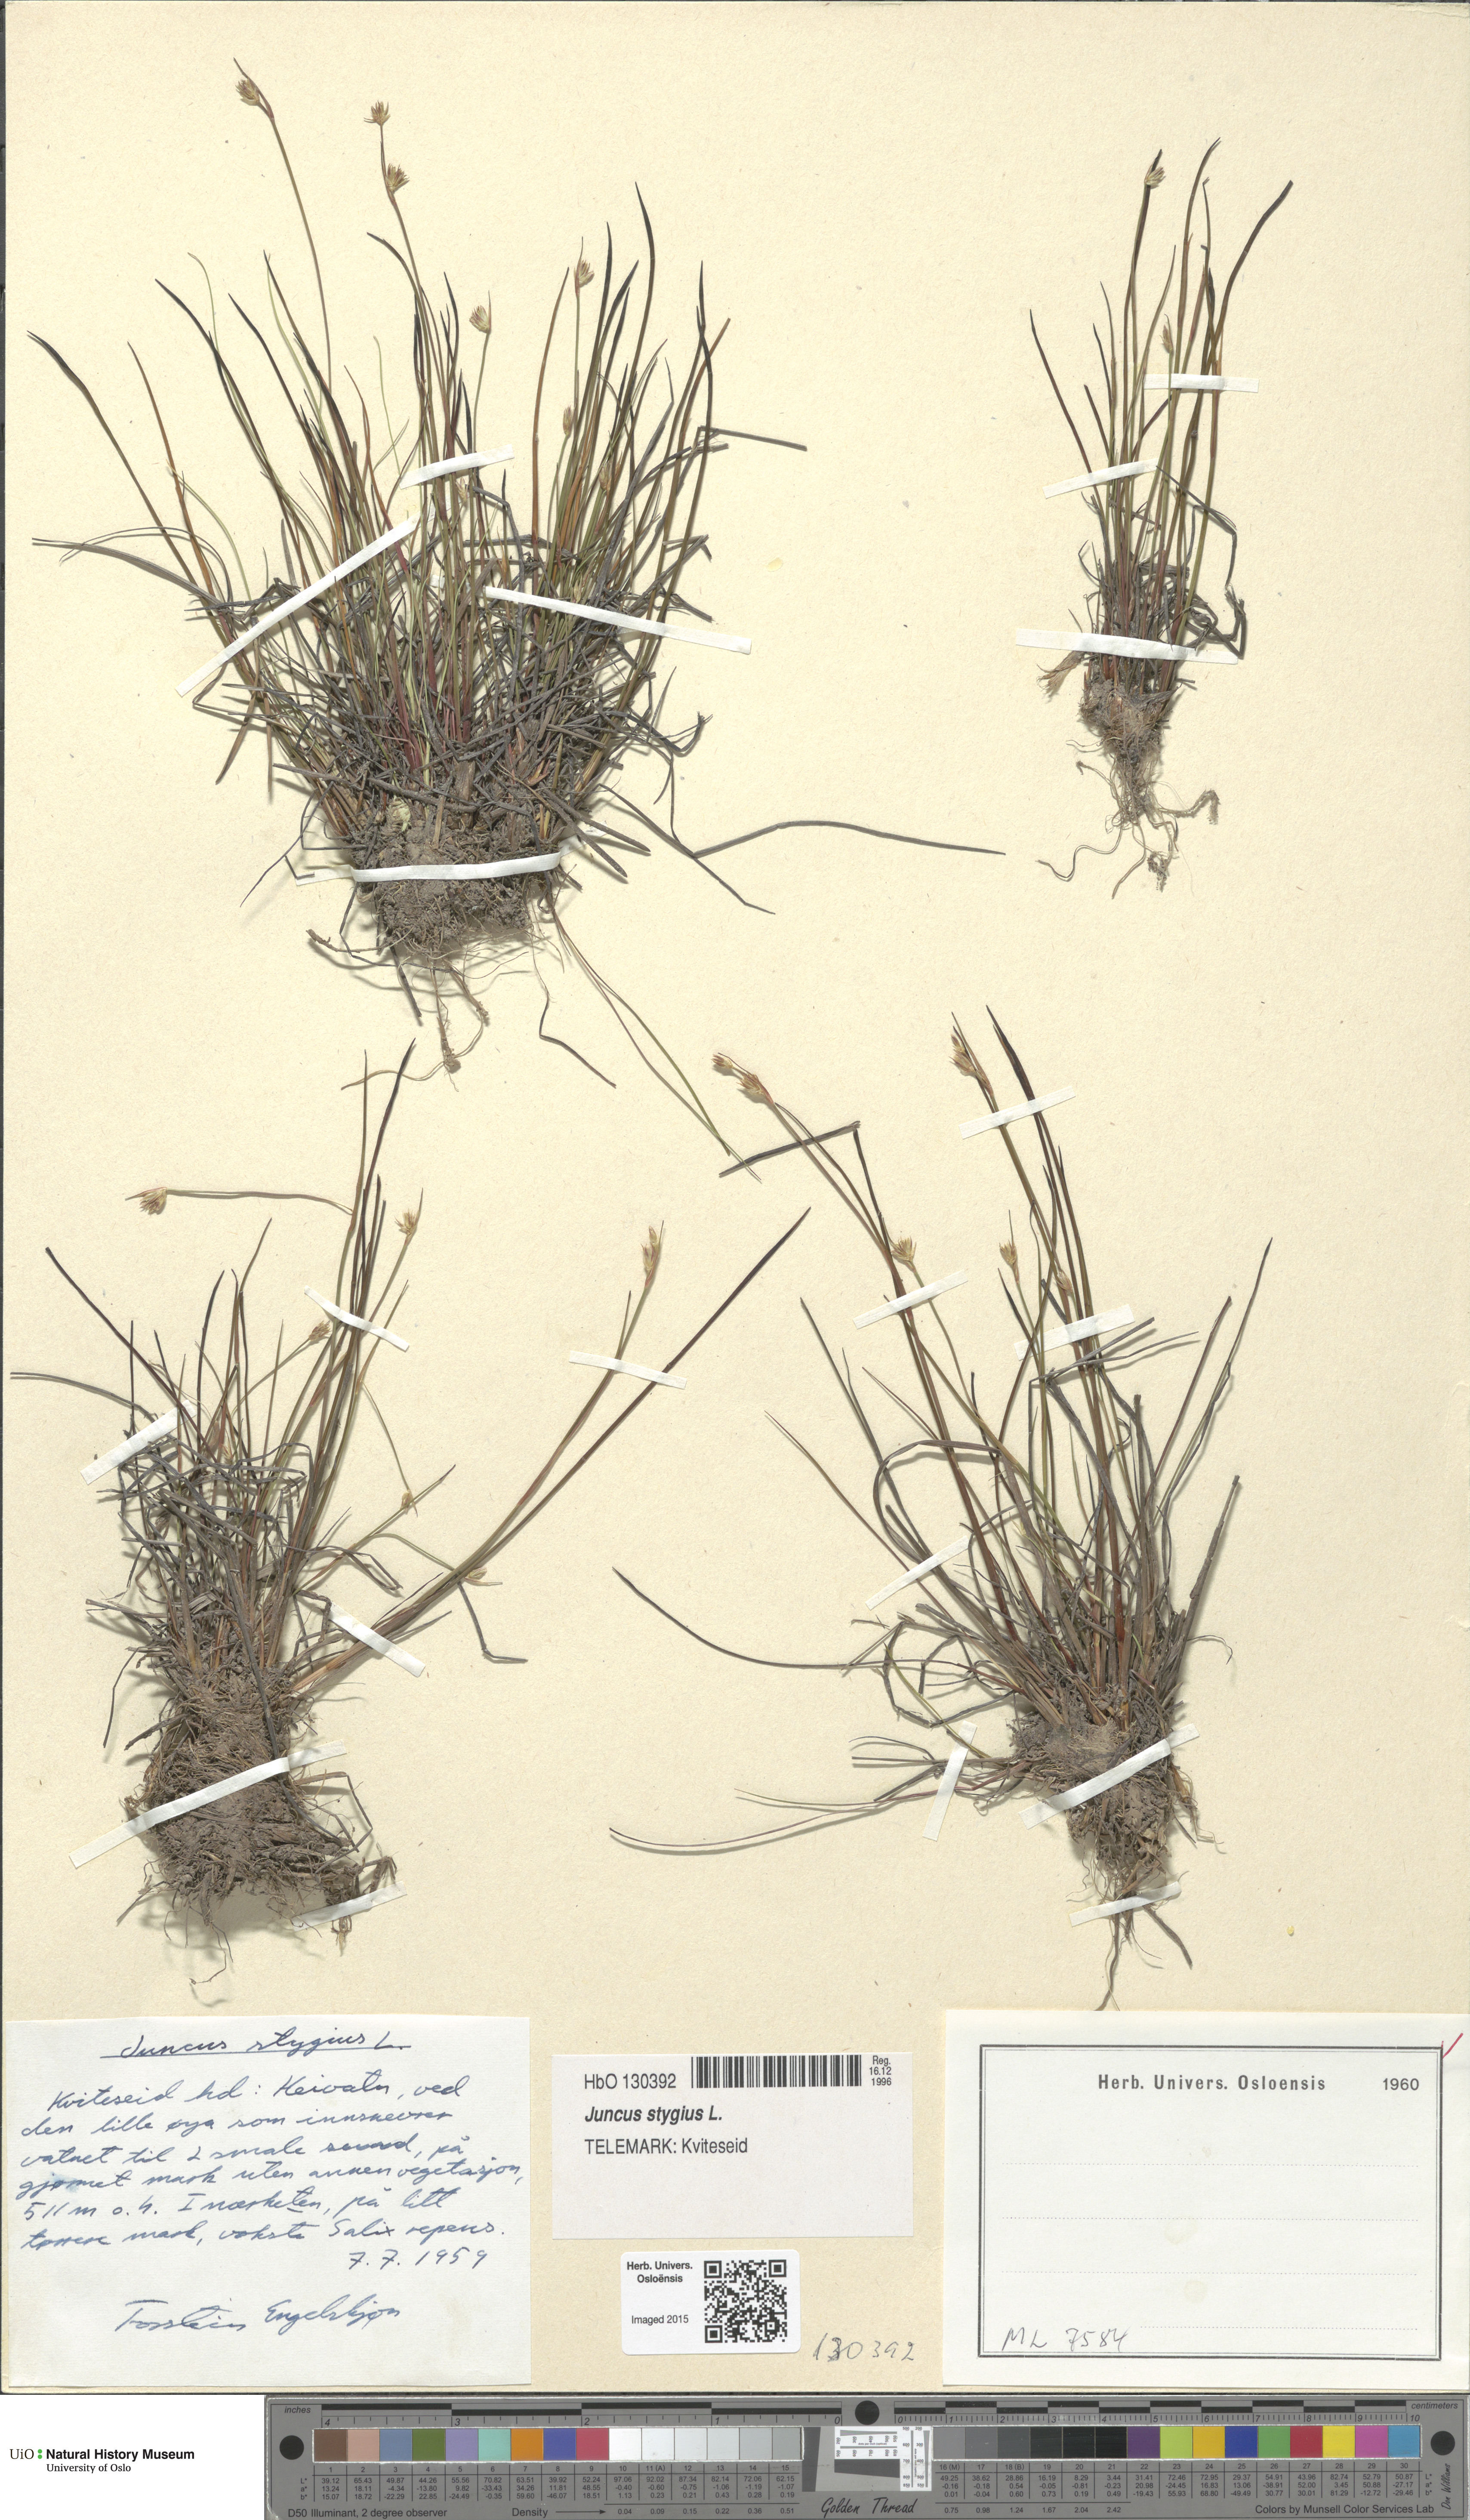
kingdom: Plantae
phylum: Tracheophyta
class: Liliopsida
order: Poales
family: Juncaceae
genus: Juncus
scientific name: Juncus stygius
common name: Bog rush
